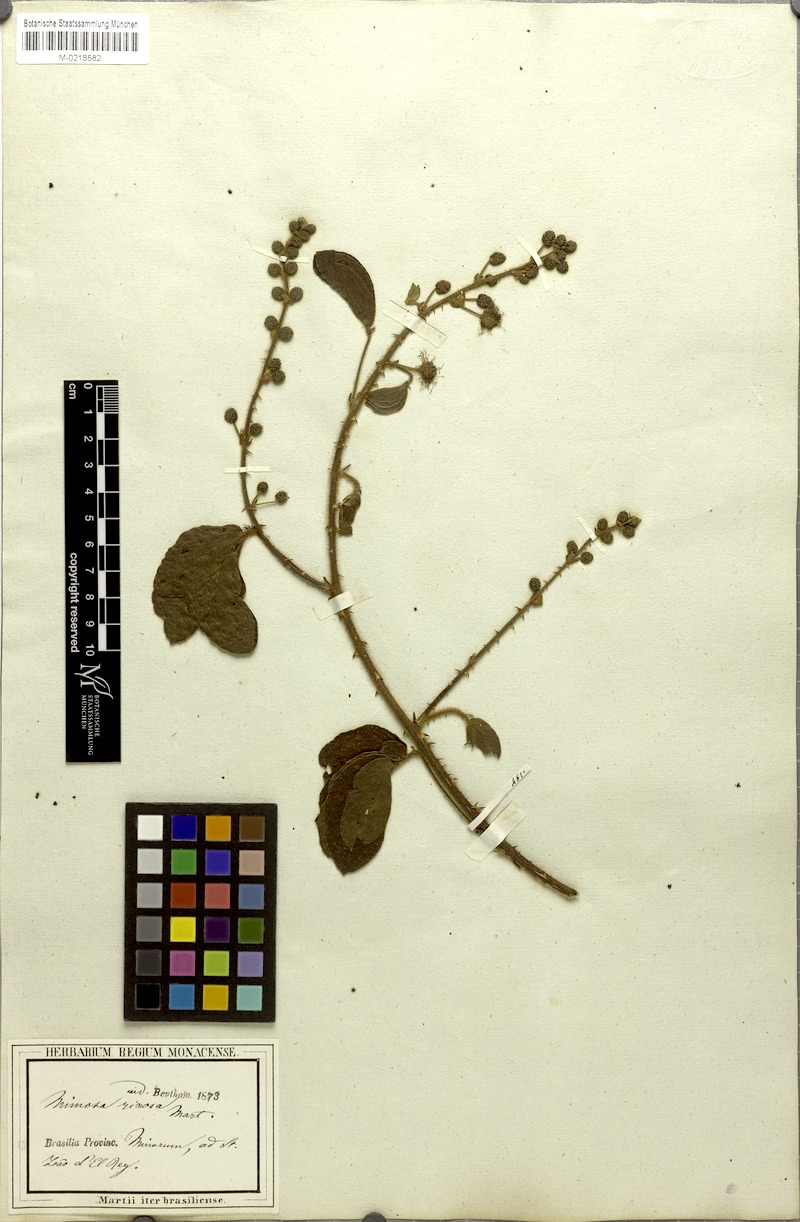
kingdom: Plantae
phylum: Tracheophyta
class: Magnoliopsida
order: Fabales
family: Fabaceae
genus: Mimosa
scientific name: Mimosa debilis
